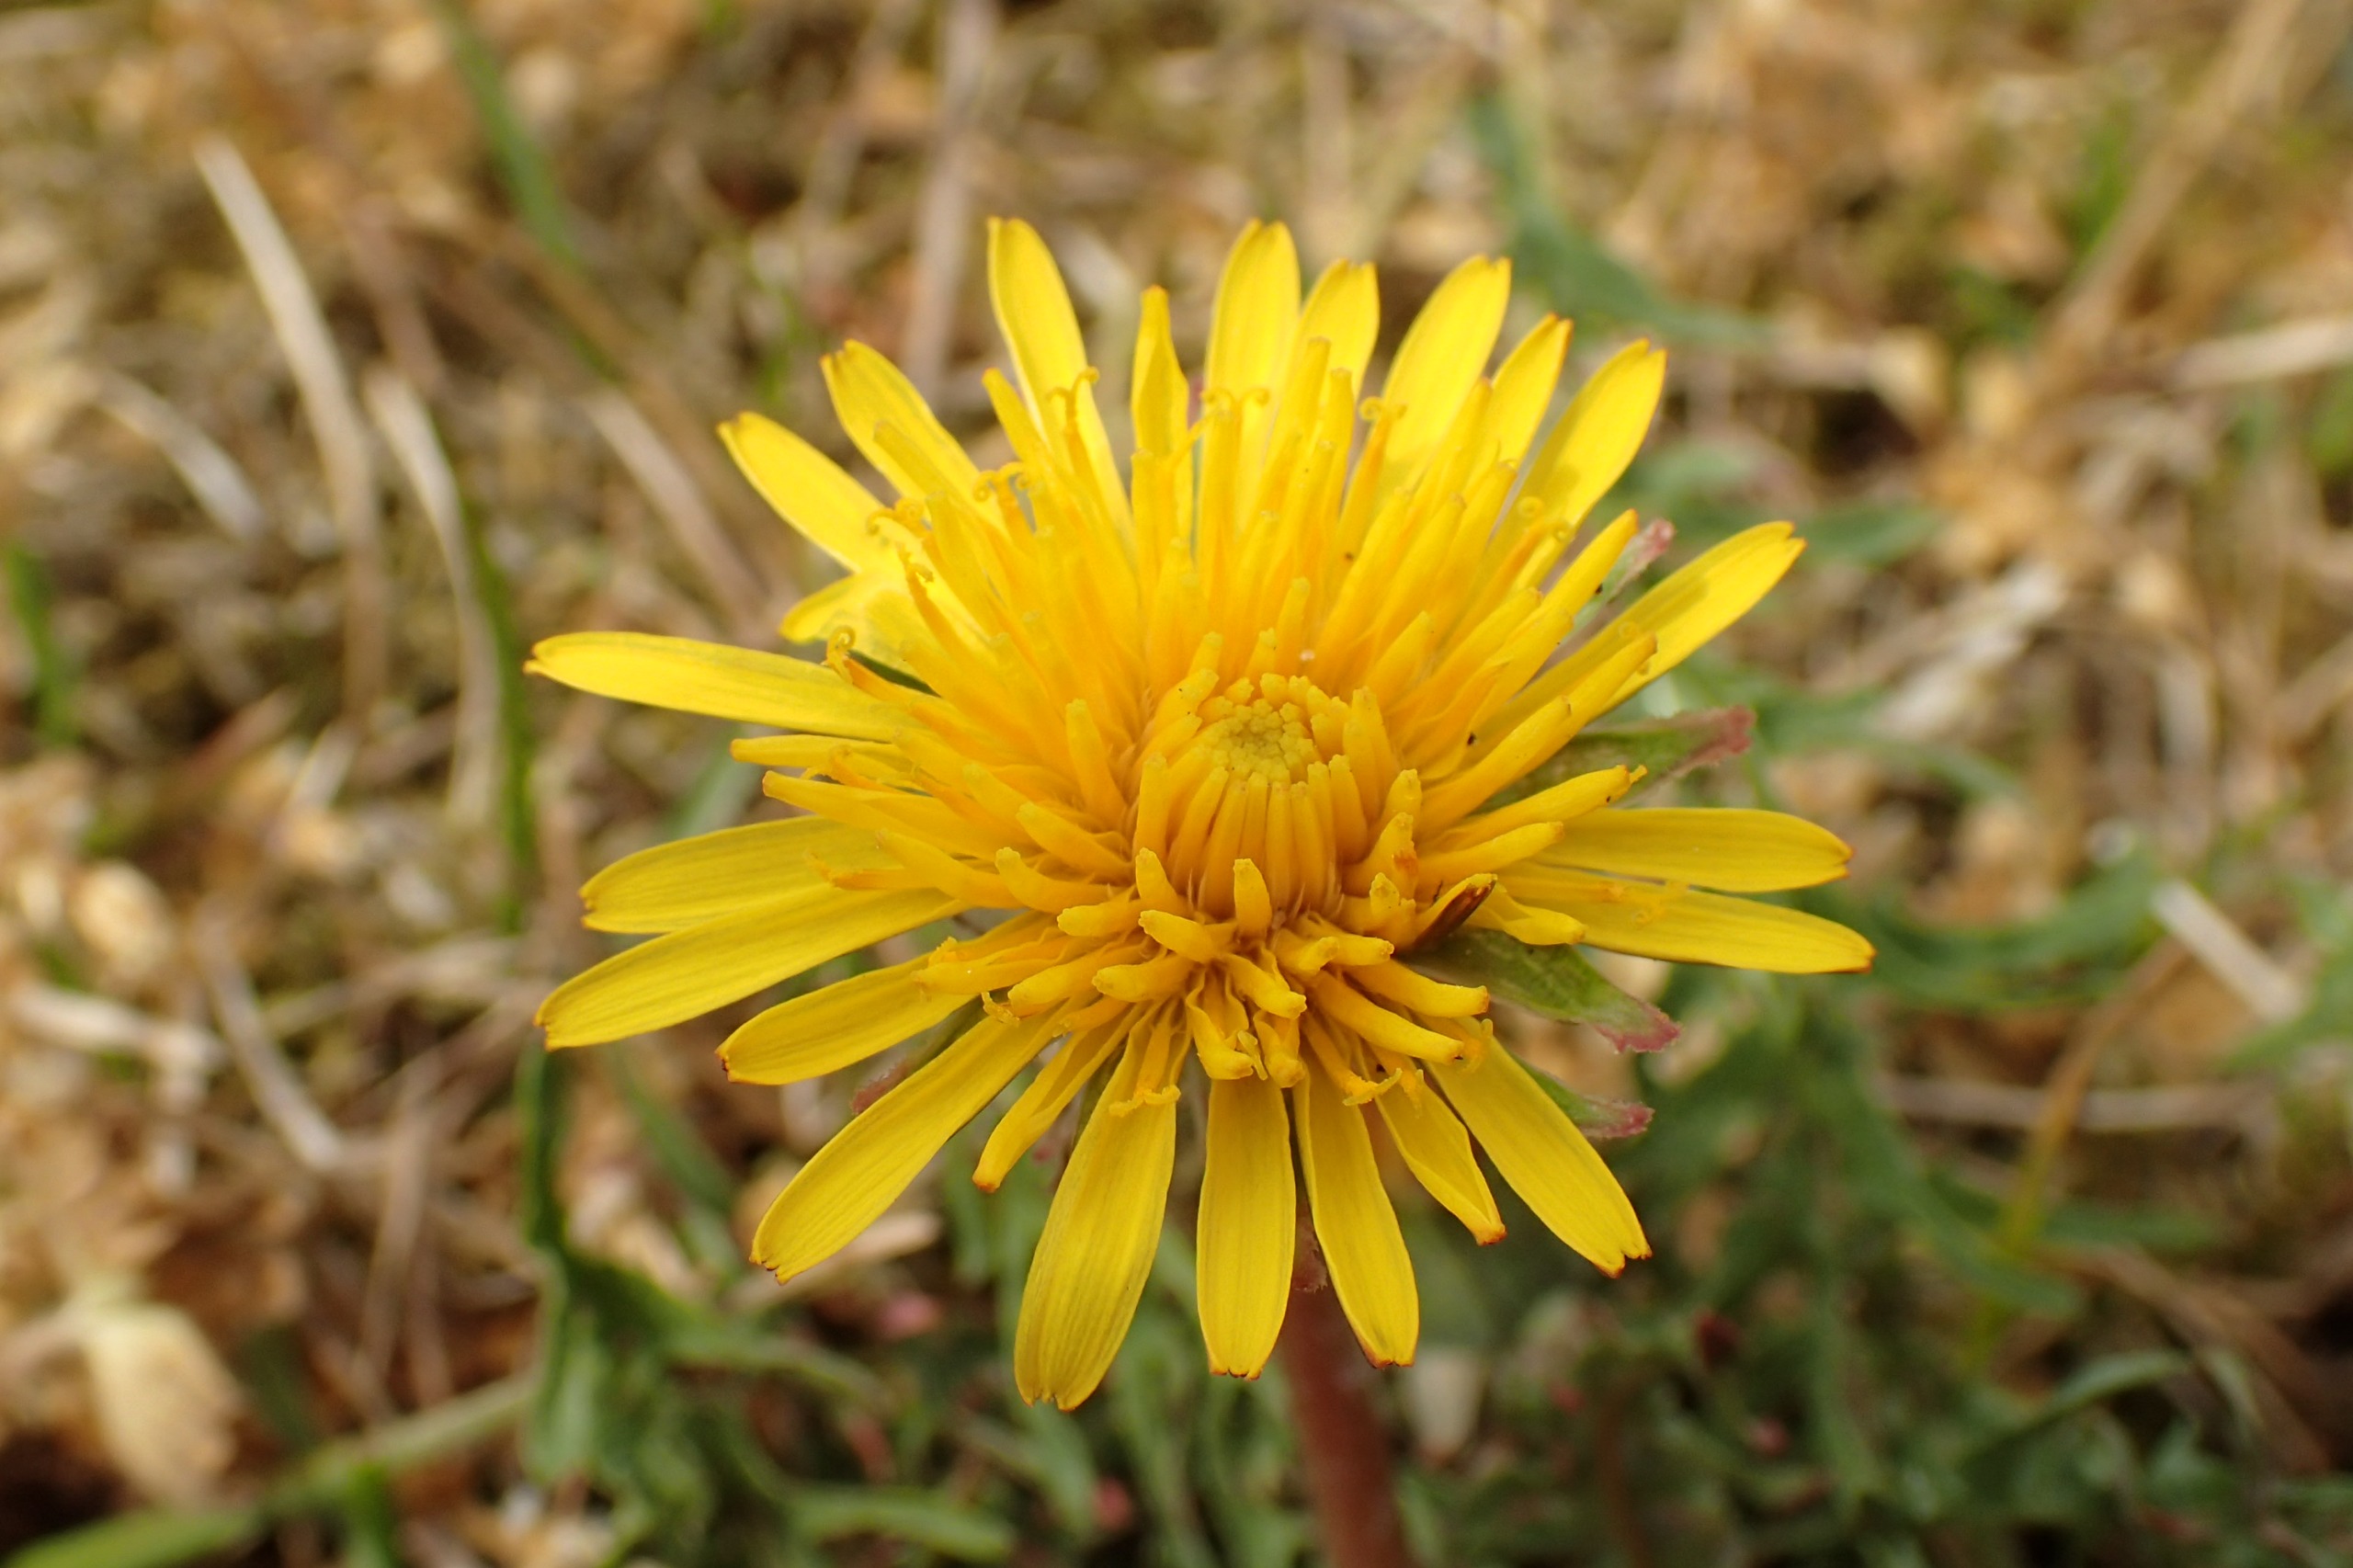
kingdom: Plantae
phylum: Tracheophyta
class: Magnoliopsida
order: Asterales
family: Asteraceae
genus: Taraxacum
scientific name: Taraxacum platyglossum
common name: Fladtunge-dværgmælkebøtte
